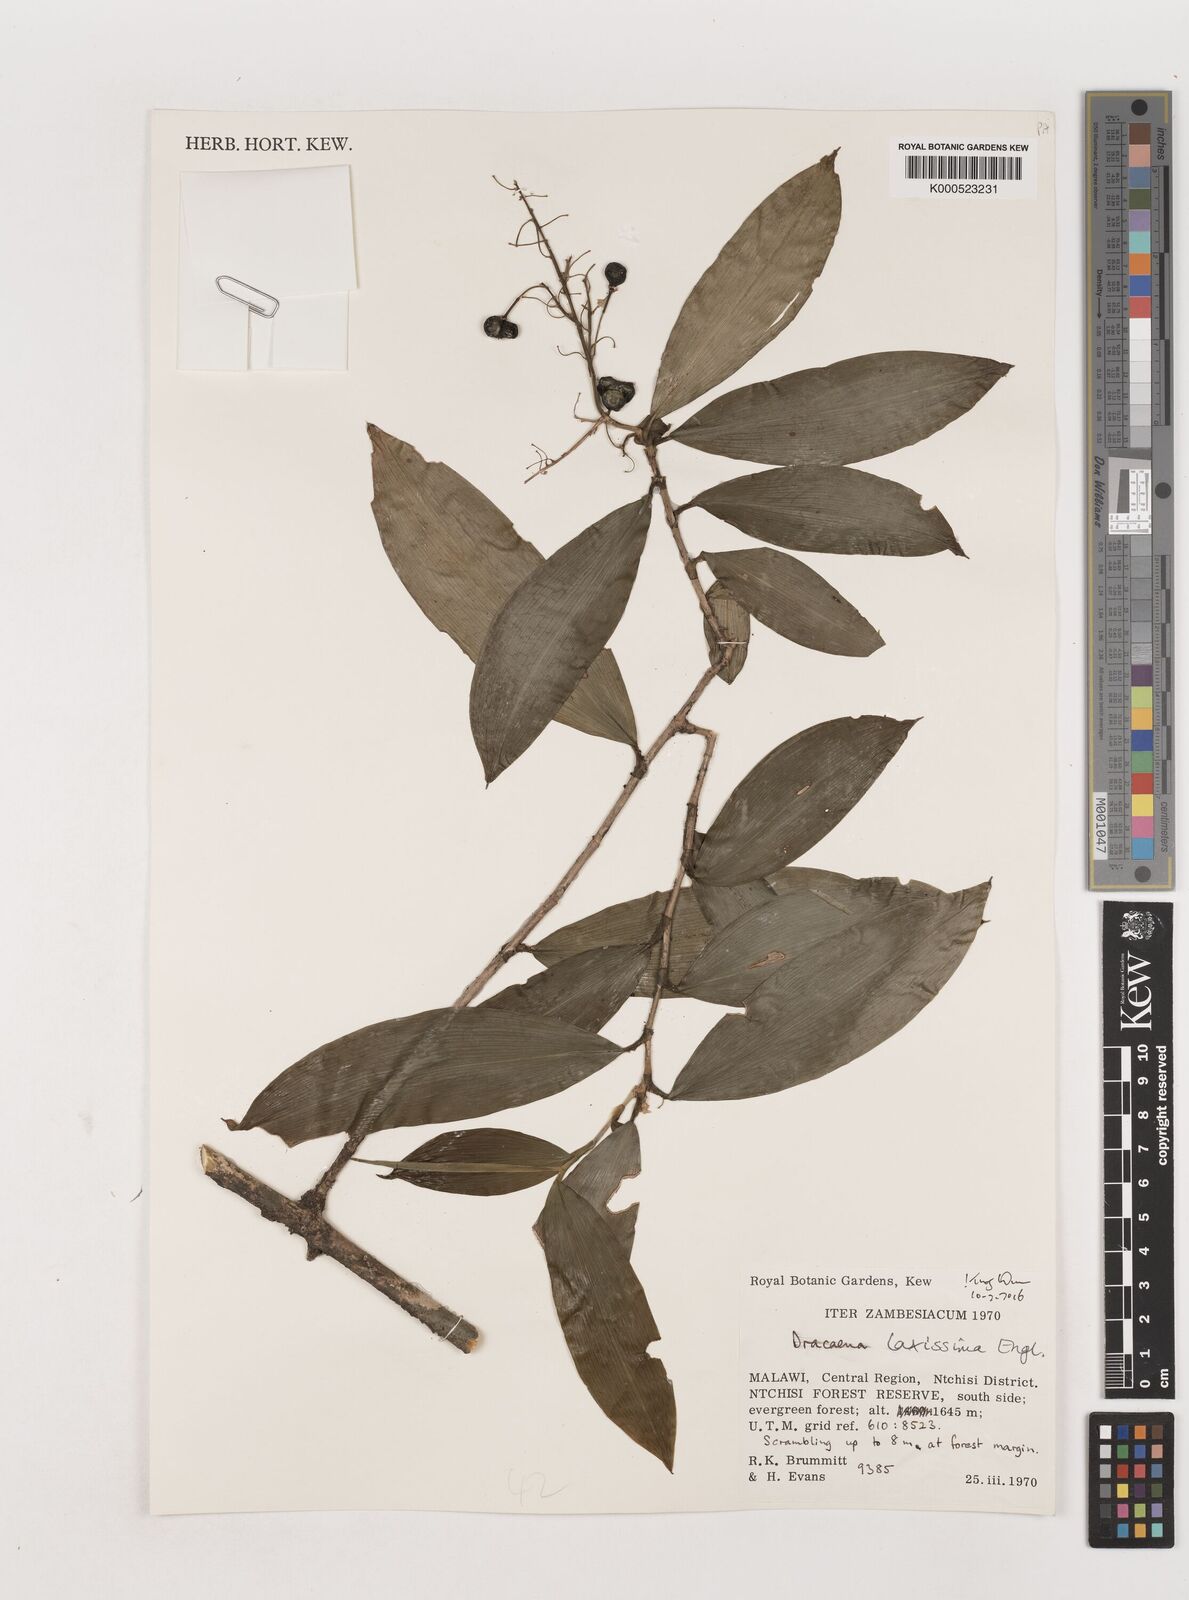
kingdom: Plantae
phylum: Tracheophyta
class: Liliopsida
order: Asparagales
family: Asparagaceae
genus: Dracaena
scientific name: Dracaena laxissima
